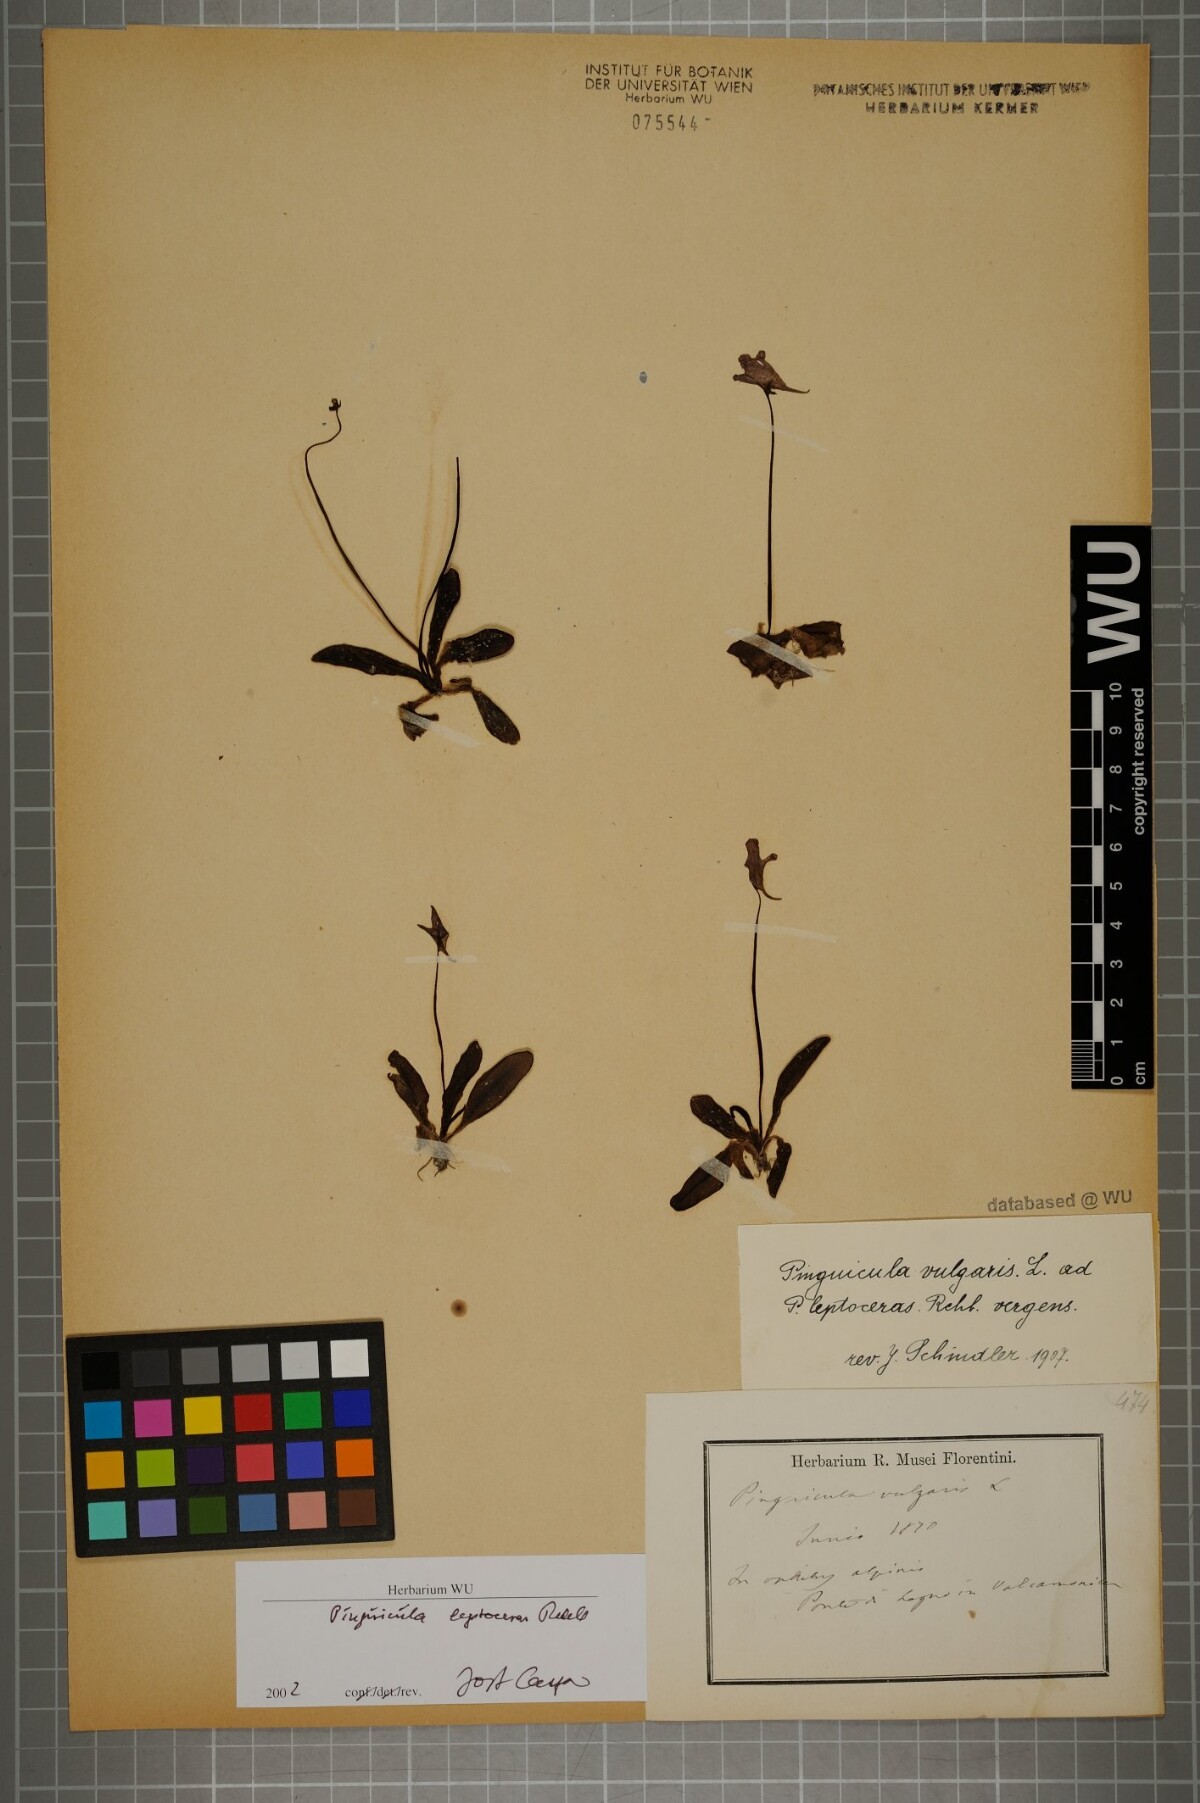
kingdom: Plantae
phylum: Tracheophyta
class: Magnoliopsida
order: Lamiales
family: Lentibulariaceae
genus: Pinguicula
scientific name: Pinguicula leptoceras
